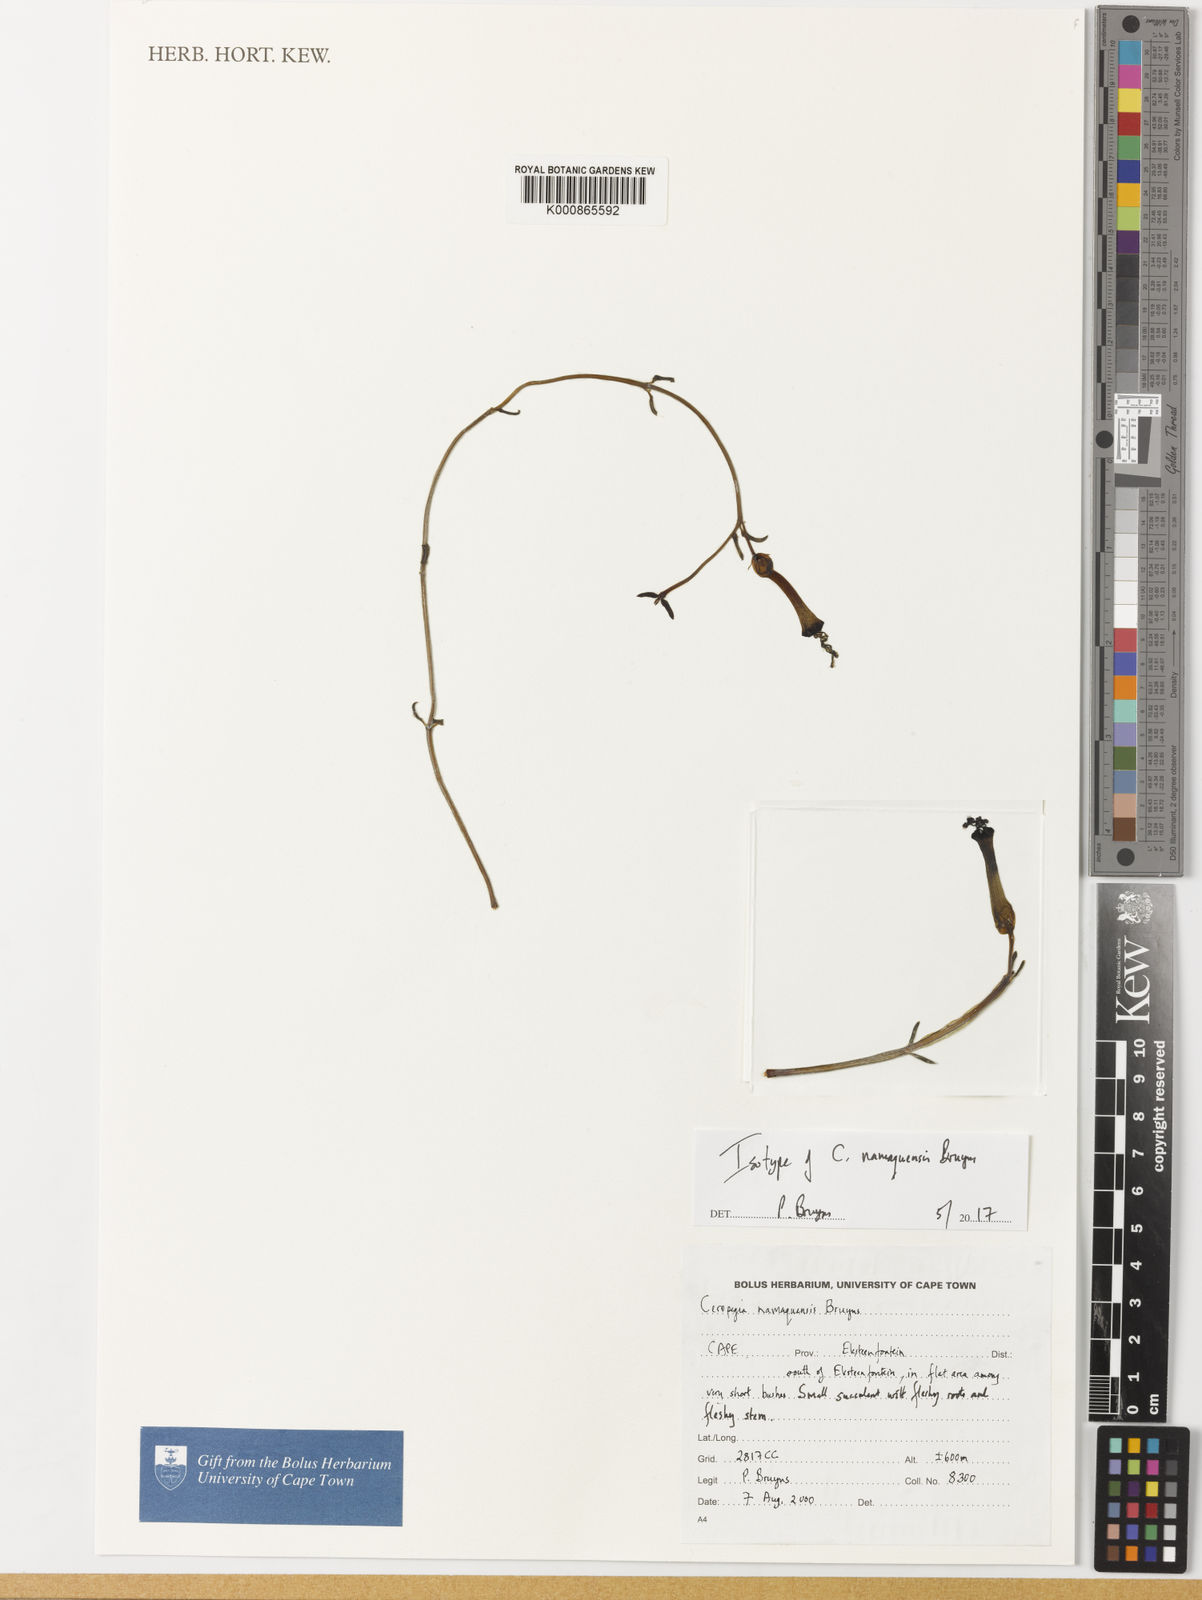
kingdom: Plantae
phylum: Tracheophyta
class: Magnoliopsida
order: Gentianales
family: Apocynaceae
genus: Ceropegia
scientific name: Ceropegia namaquensis
